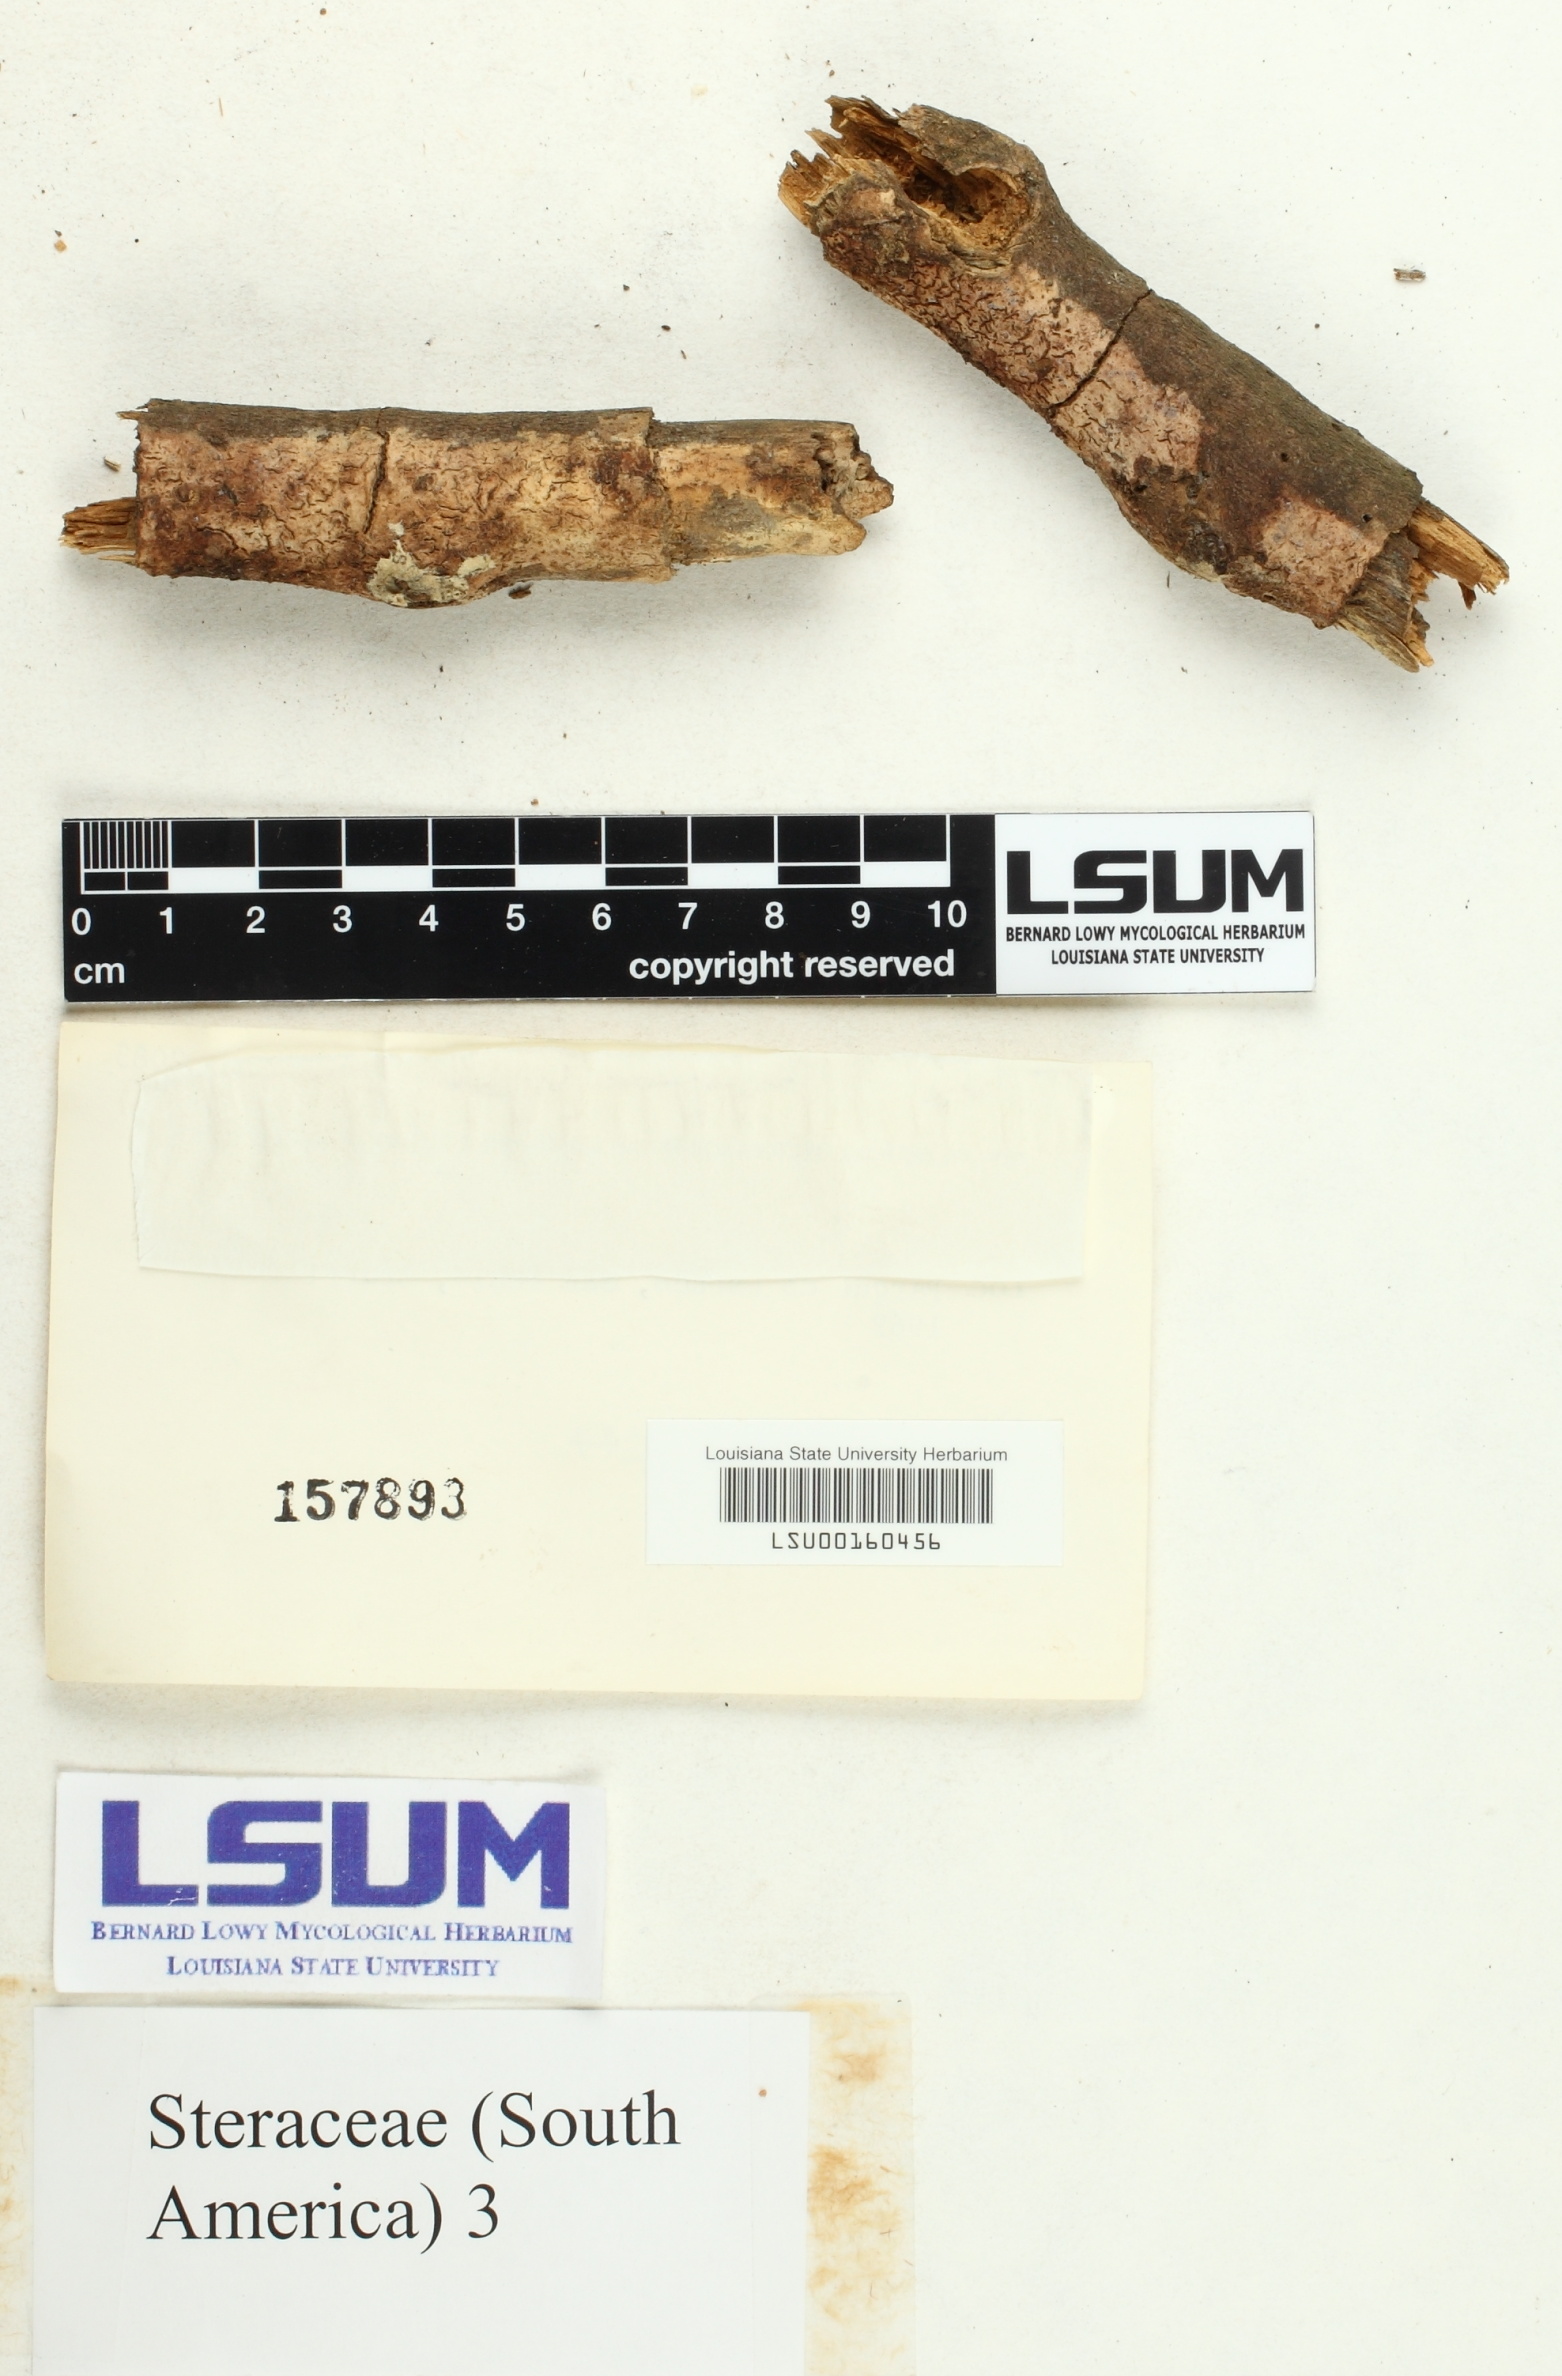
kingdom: Fungi
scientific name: Fungi
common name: Fungi
